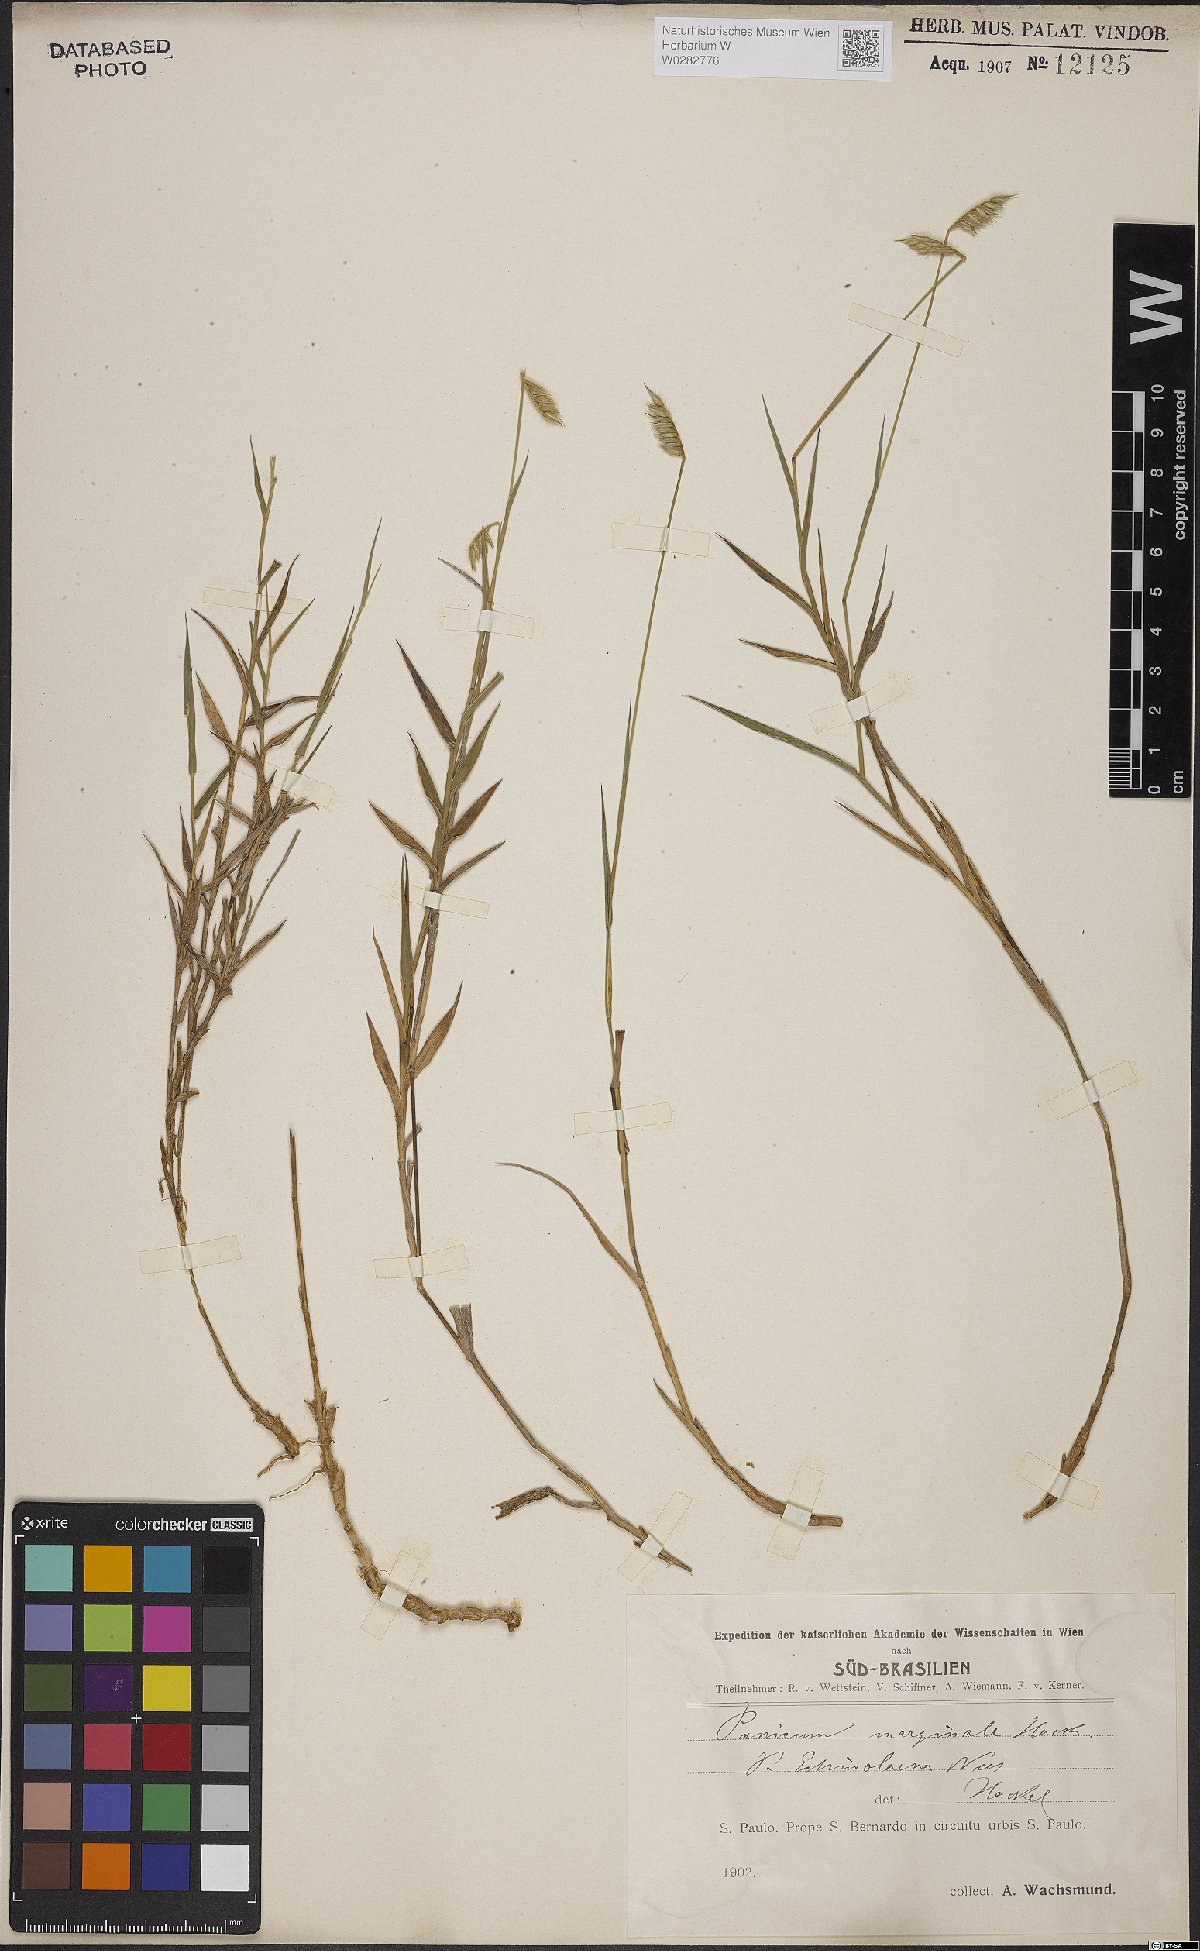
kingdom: Plantae
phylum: Tracheophyta
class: Liliopsida
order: Poales
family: Poaceae
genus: Echinolaena
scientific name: Echinolaena inflexa
